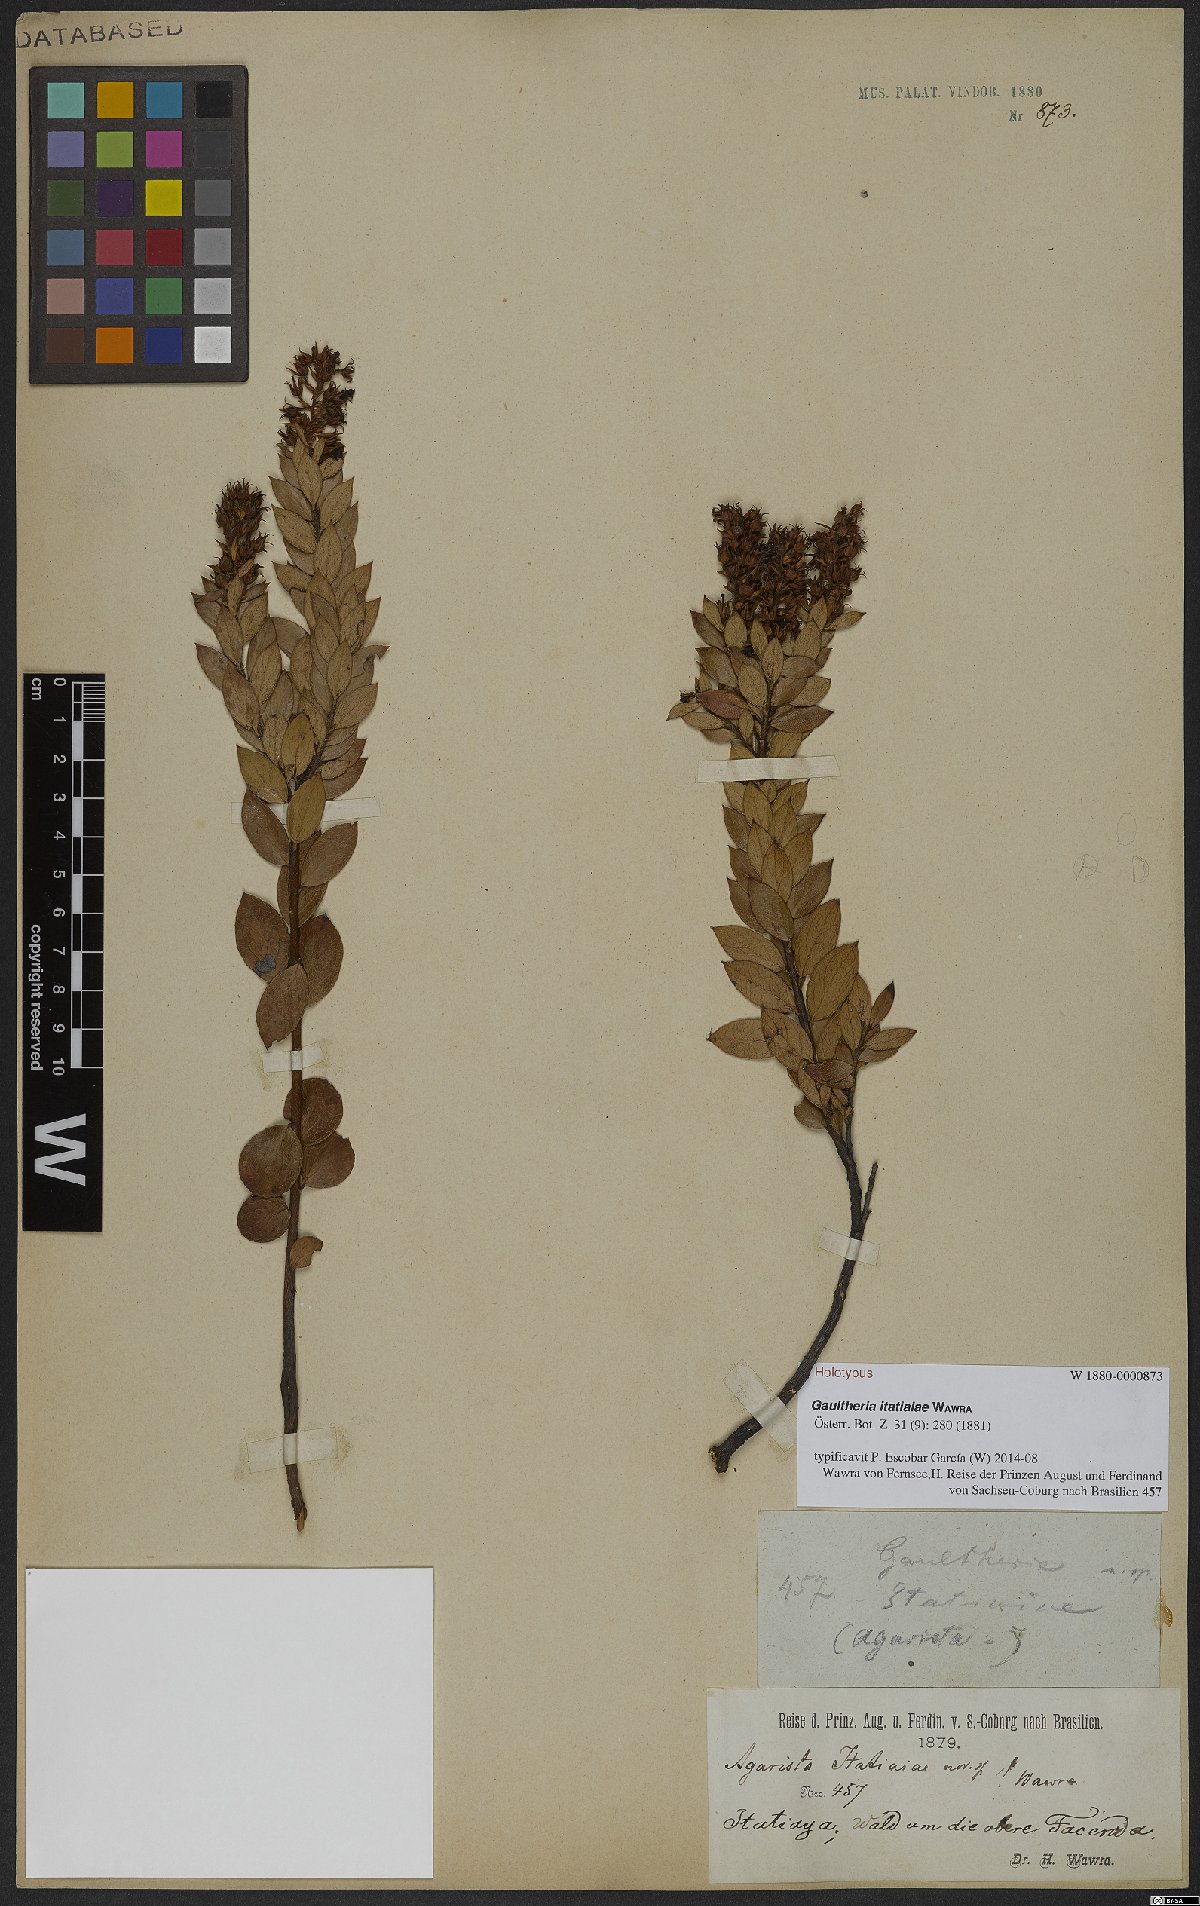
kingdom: Plantae
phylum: Tracheophyta
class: Magnoliopsida
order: Ericales
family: Ericaceae
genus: Gaultheria
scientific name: Gaultheria itatiaiae
